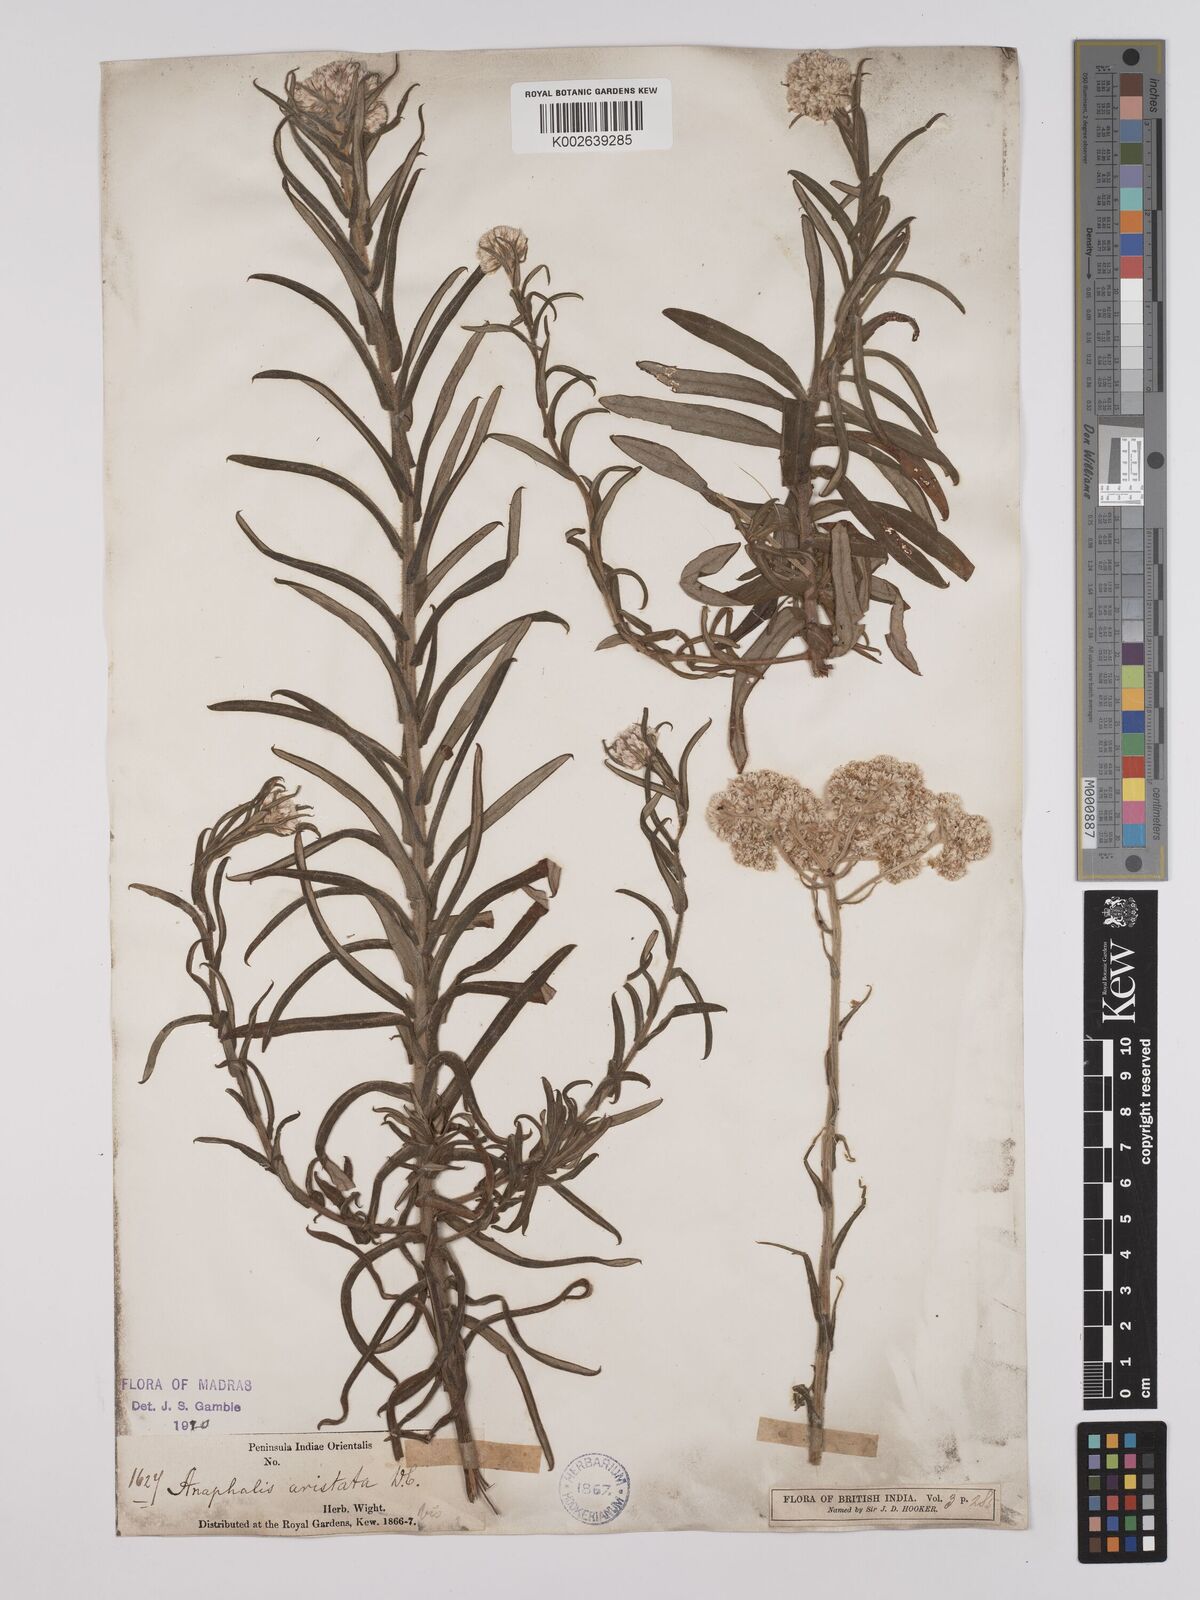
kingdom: Plantae
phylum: Tracheophyta
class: Magnoliopsida
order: Asterales
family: Asteraceae
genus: Anaphalis
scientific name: Anaphalis aristata
